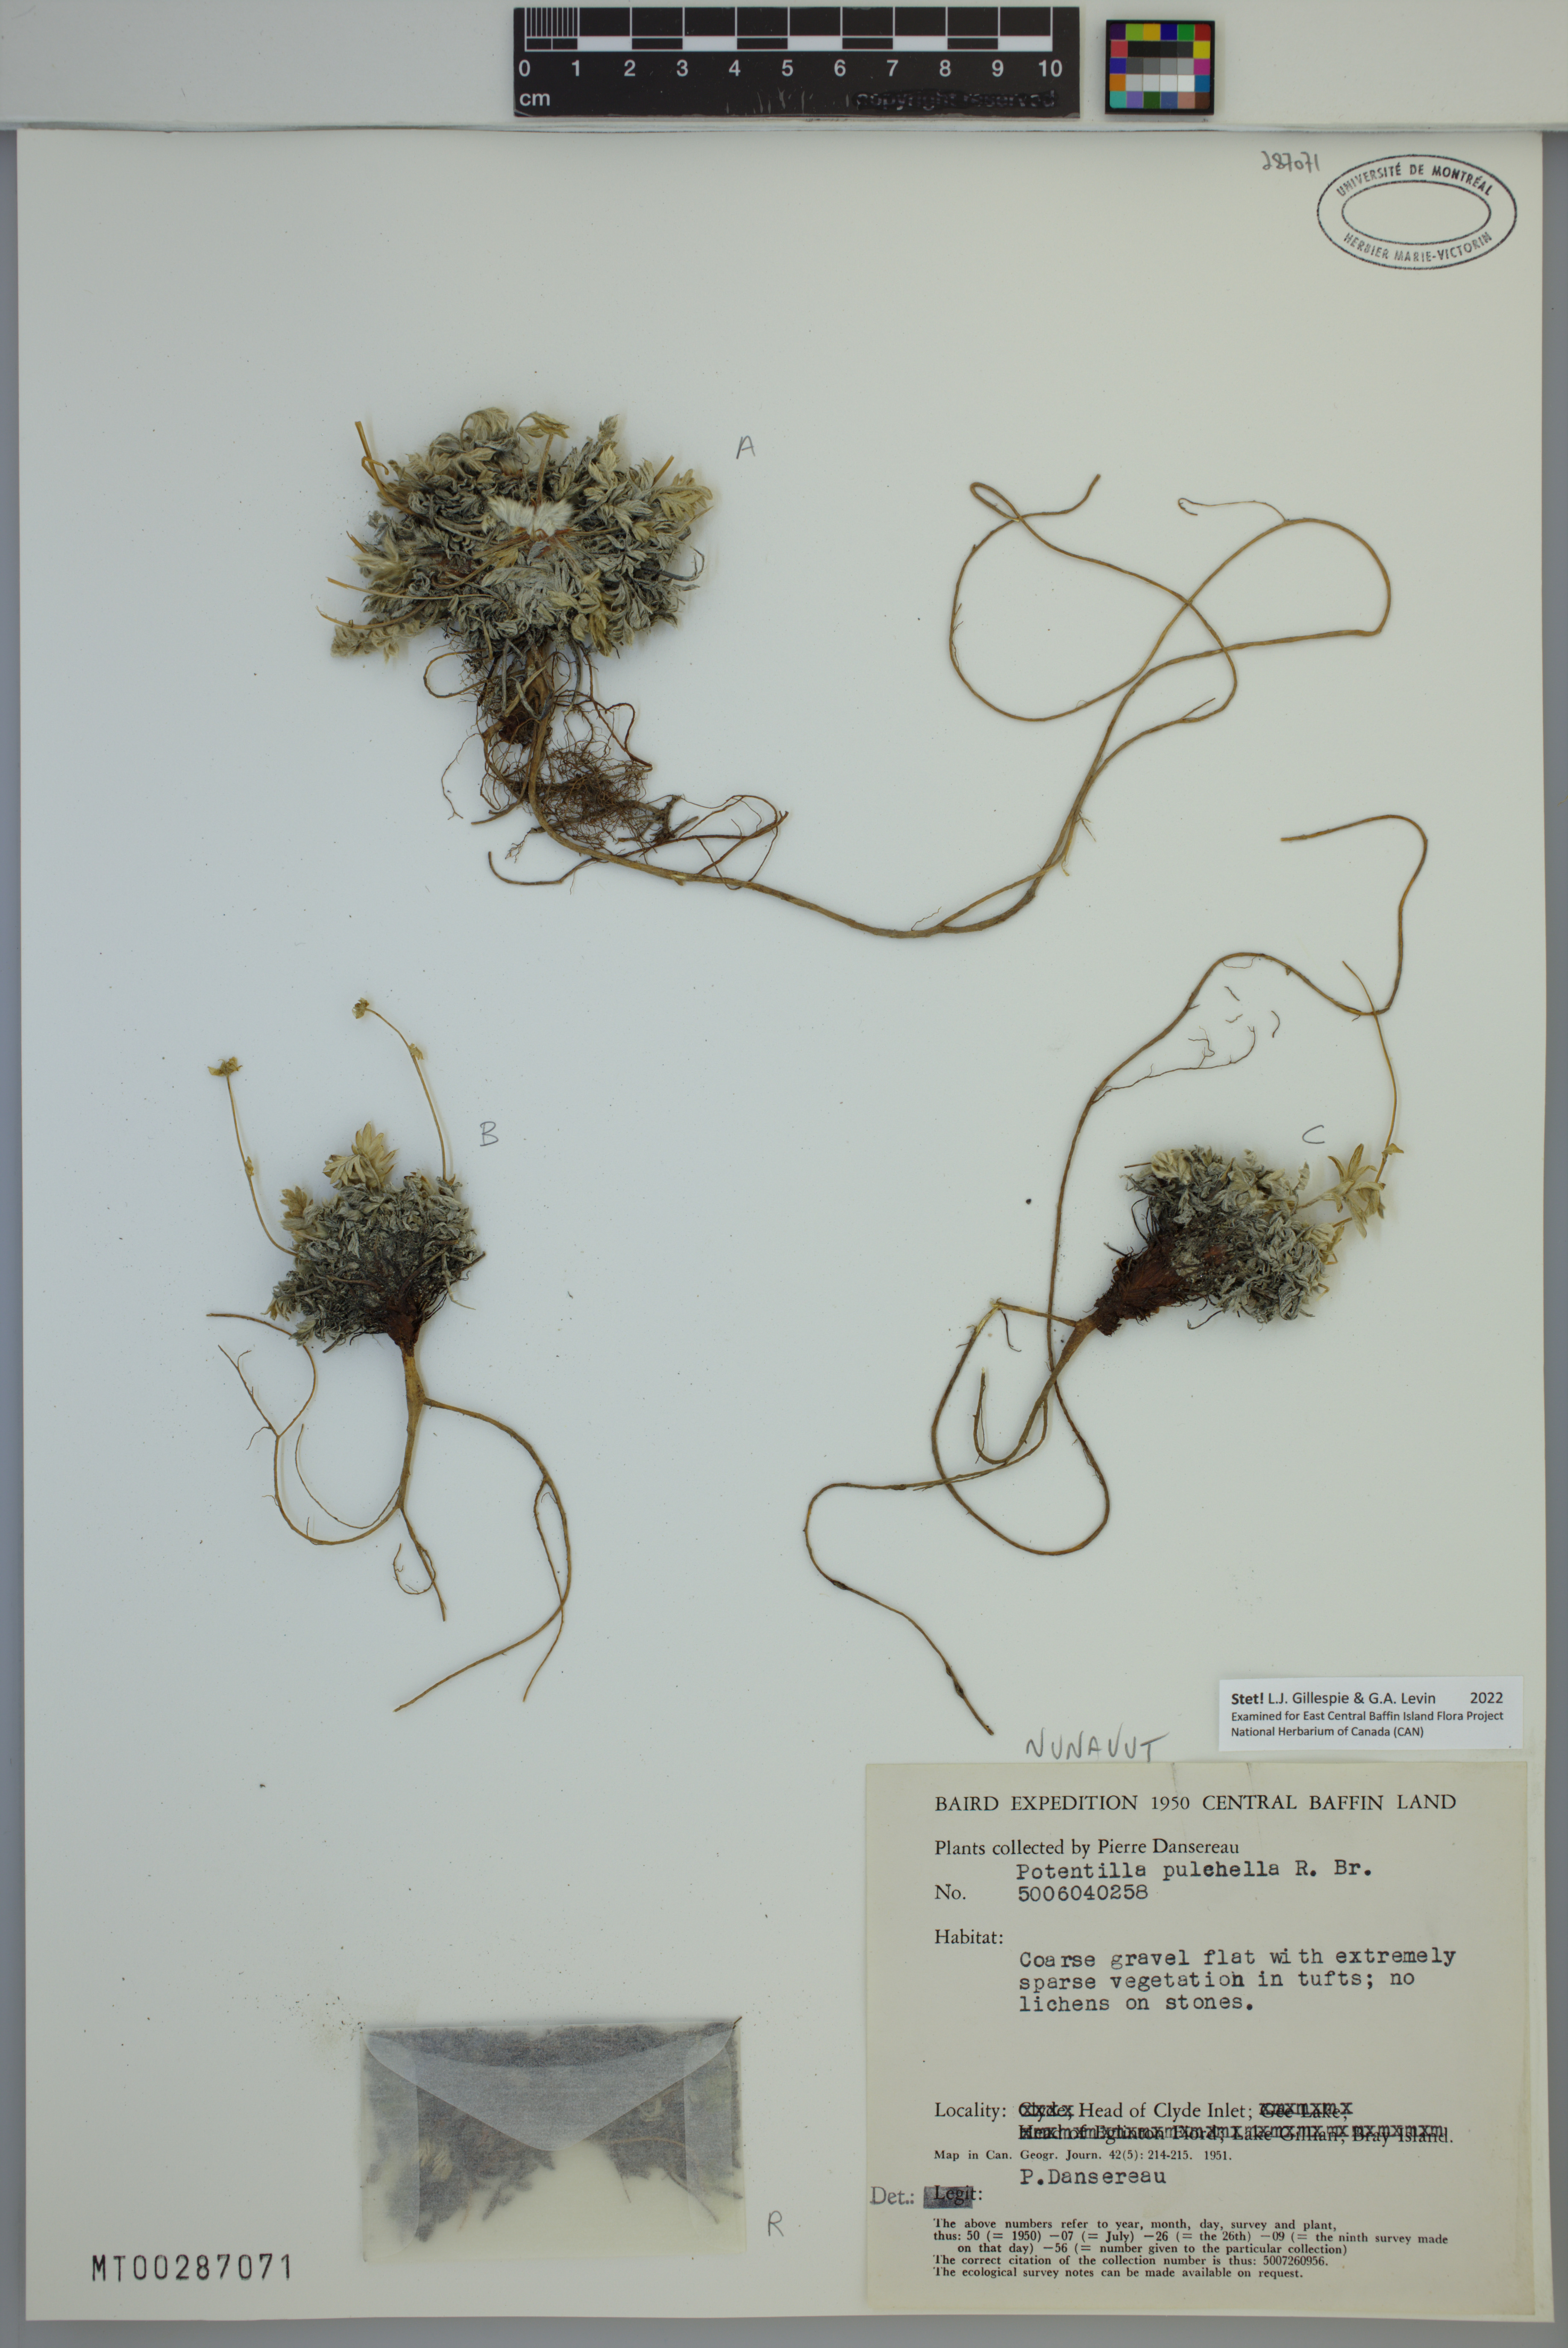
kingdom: Plantae
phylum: Tracheophyta
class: Magnoliopsida
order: Rosales
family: Rosaceae
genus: Potentilla
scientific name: Potentilla pulchella
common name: Pretty cinquefoil
